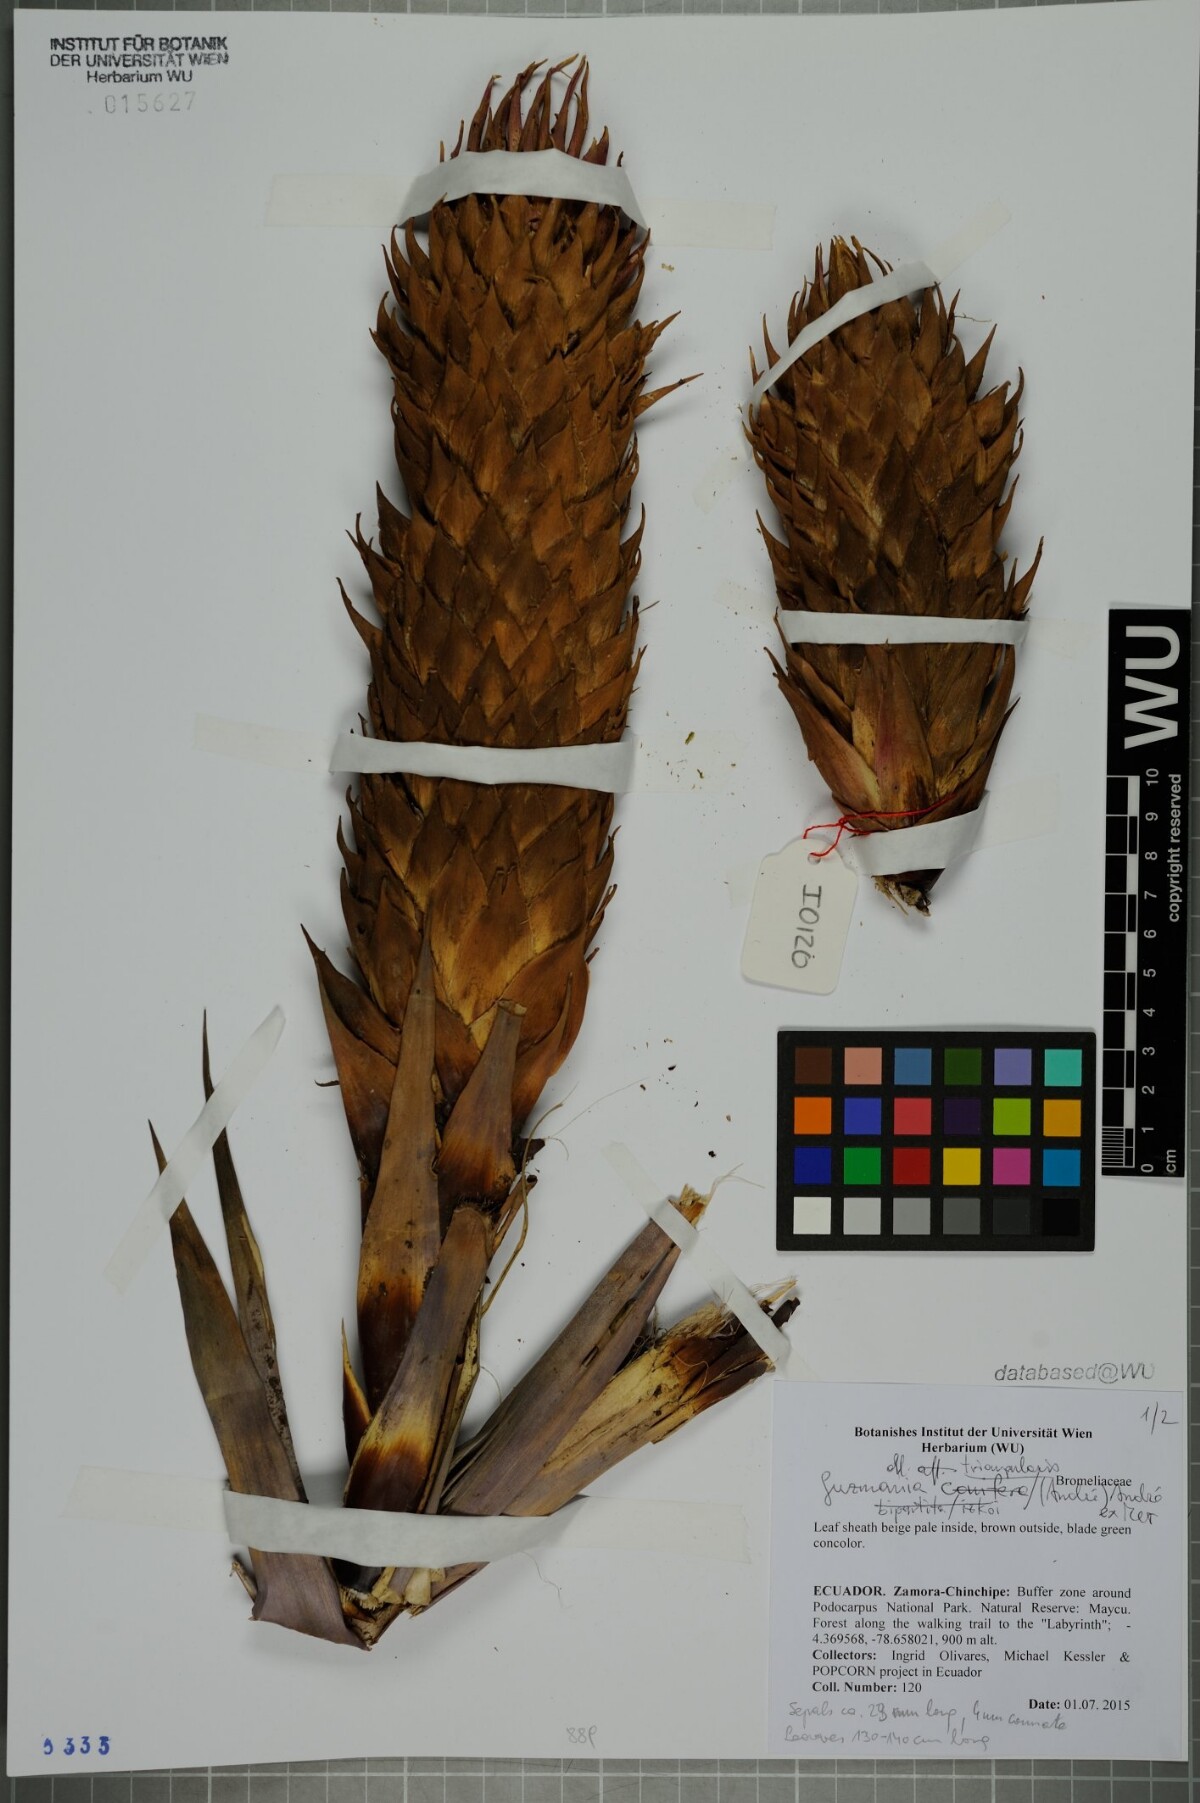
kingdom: Plantae
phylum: Tracheophyta
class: Liliopsida
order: Poales
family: Bromeliaceae
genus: Guzmania
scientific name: Guzmania triangularis
